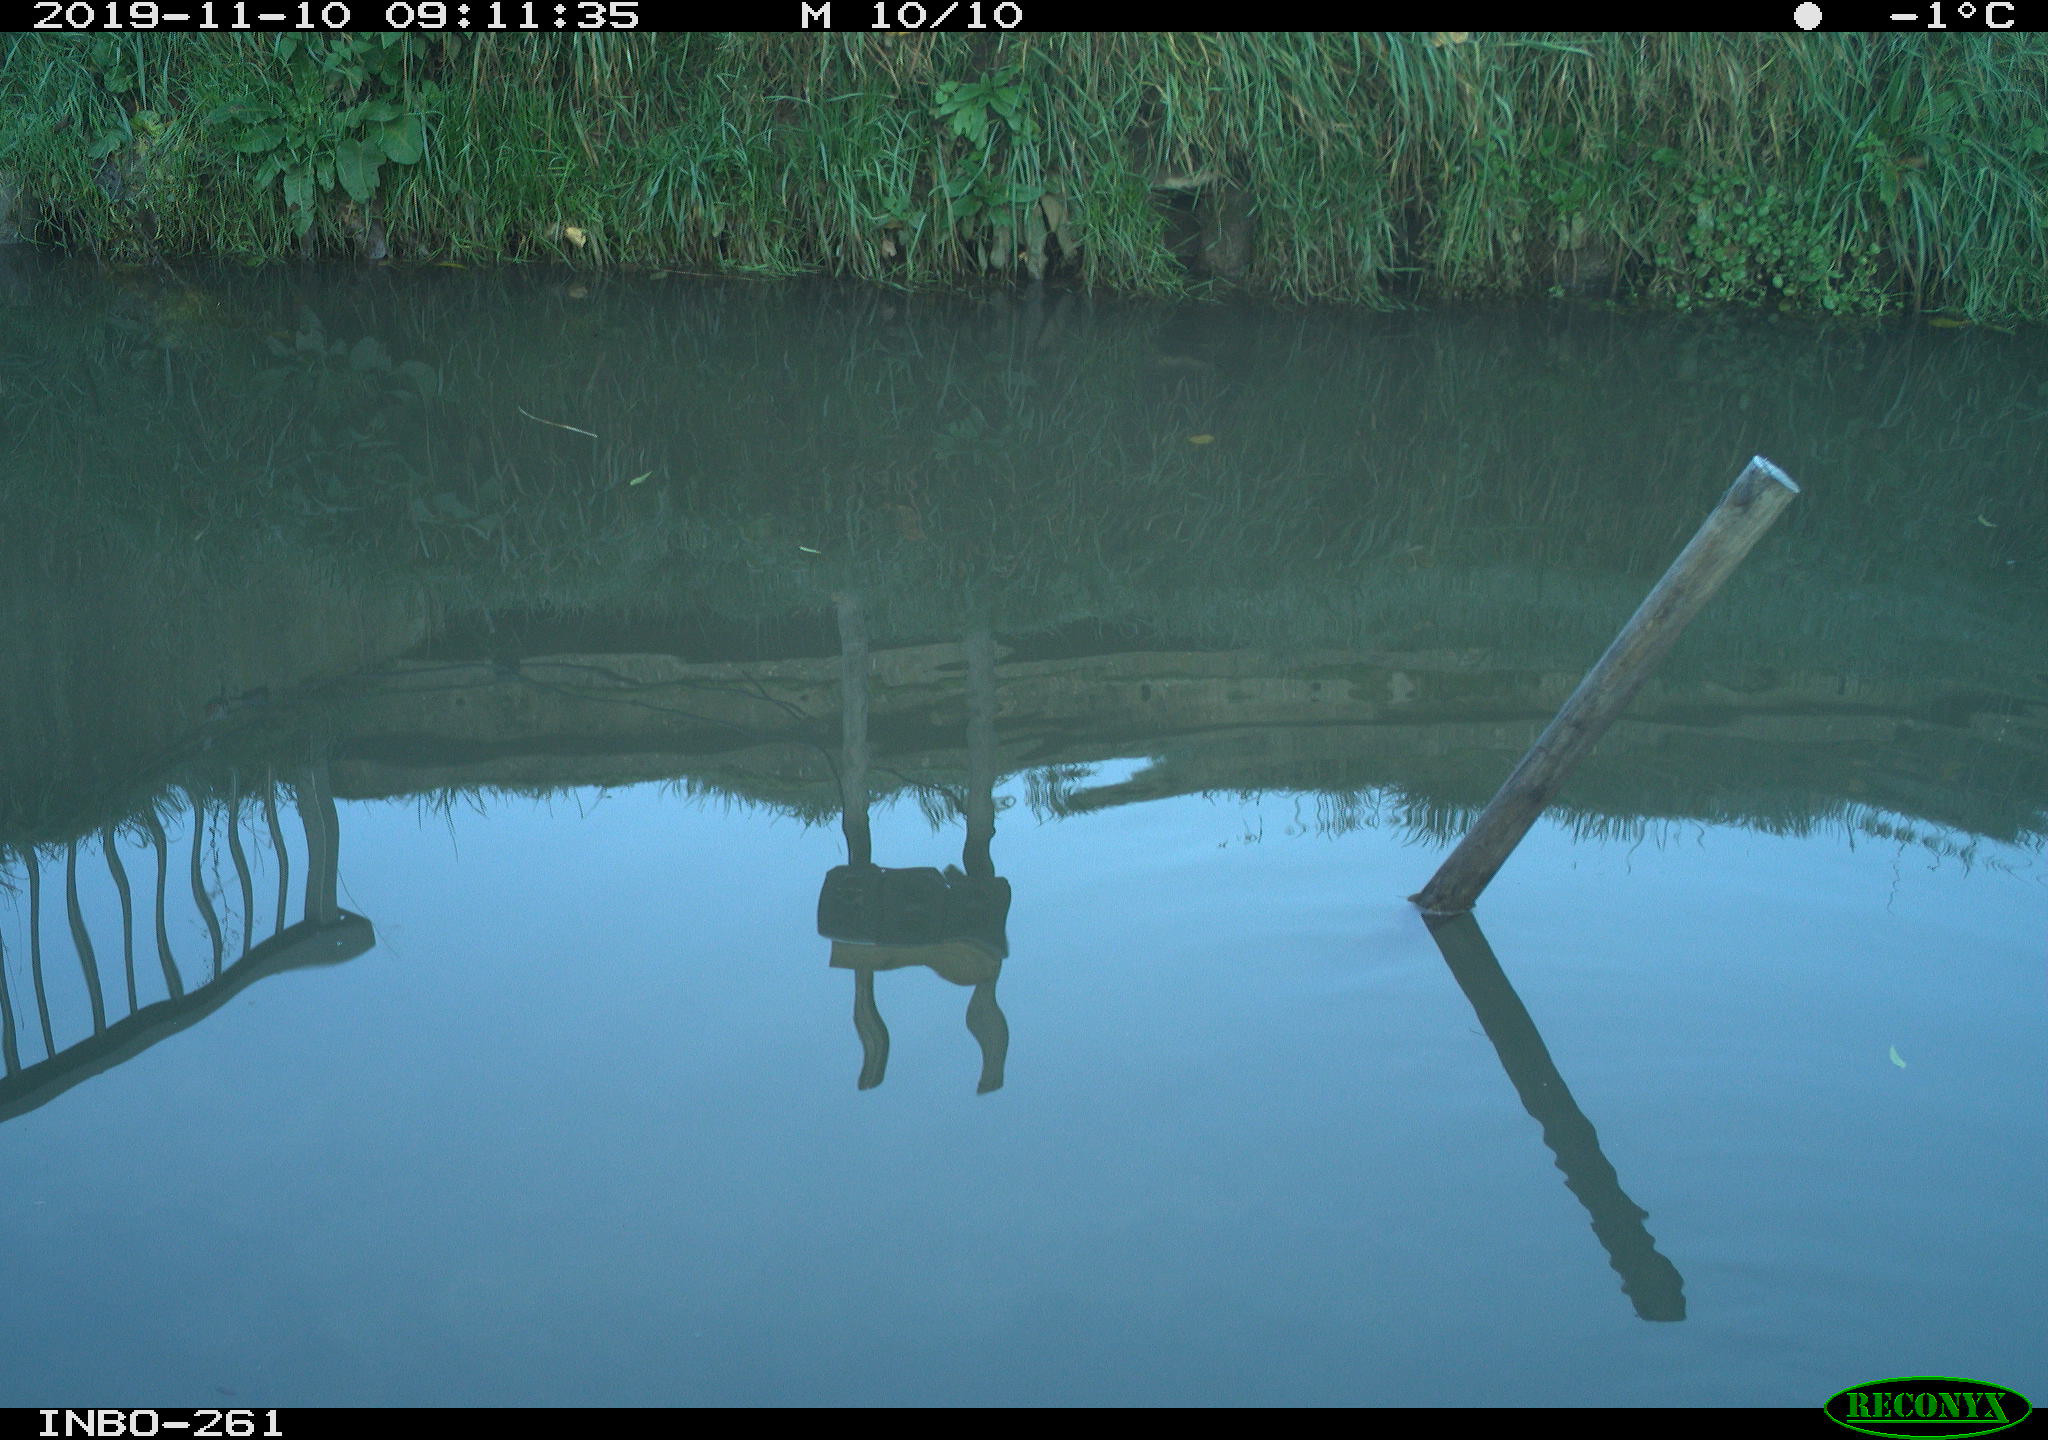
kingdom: Animalia
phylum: Chordata
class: Aves
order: Gruiformes
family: Rallidae
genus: Gallinula
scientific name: Gallinula chloropus
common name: Common moorhen
